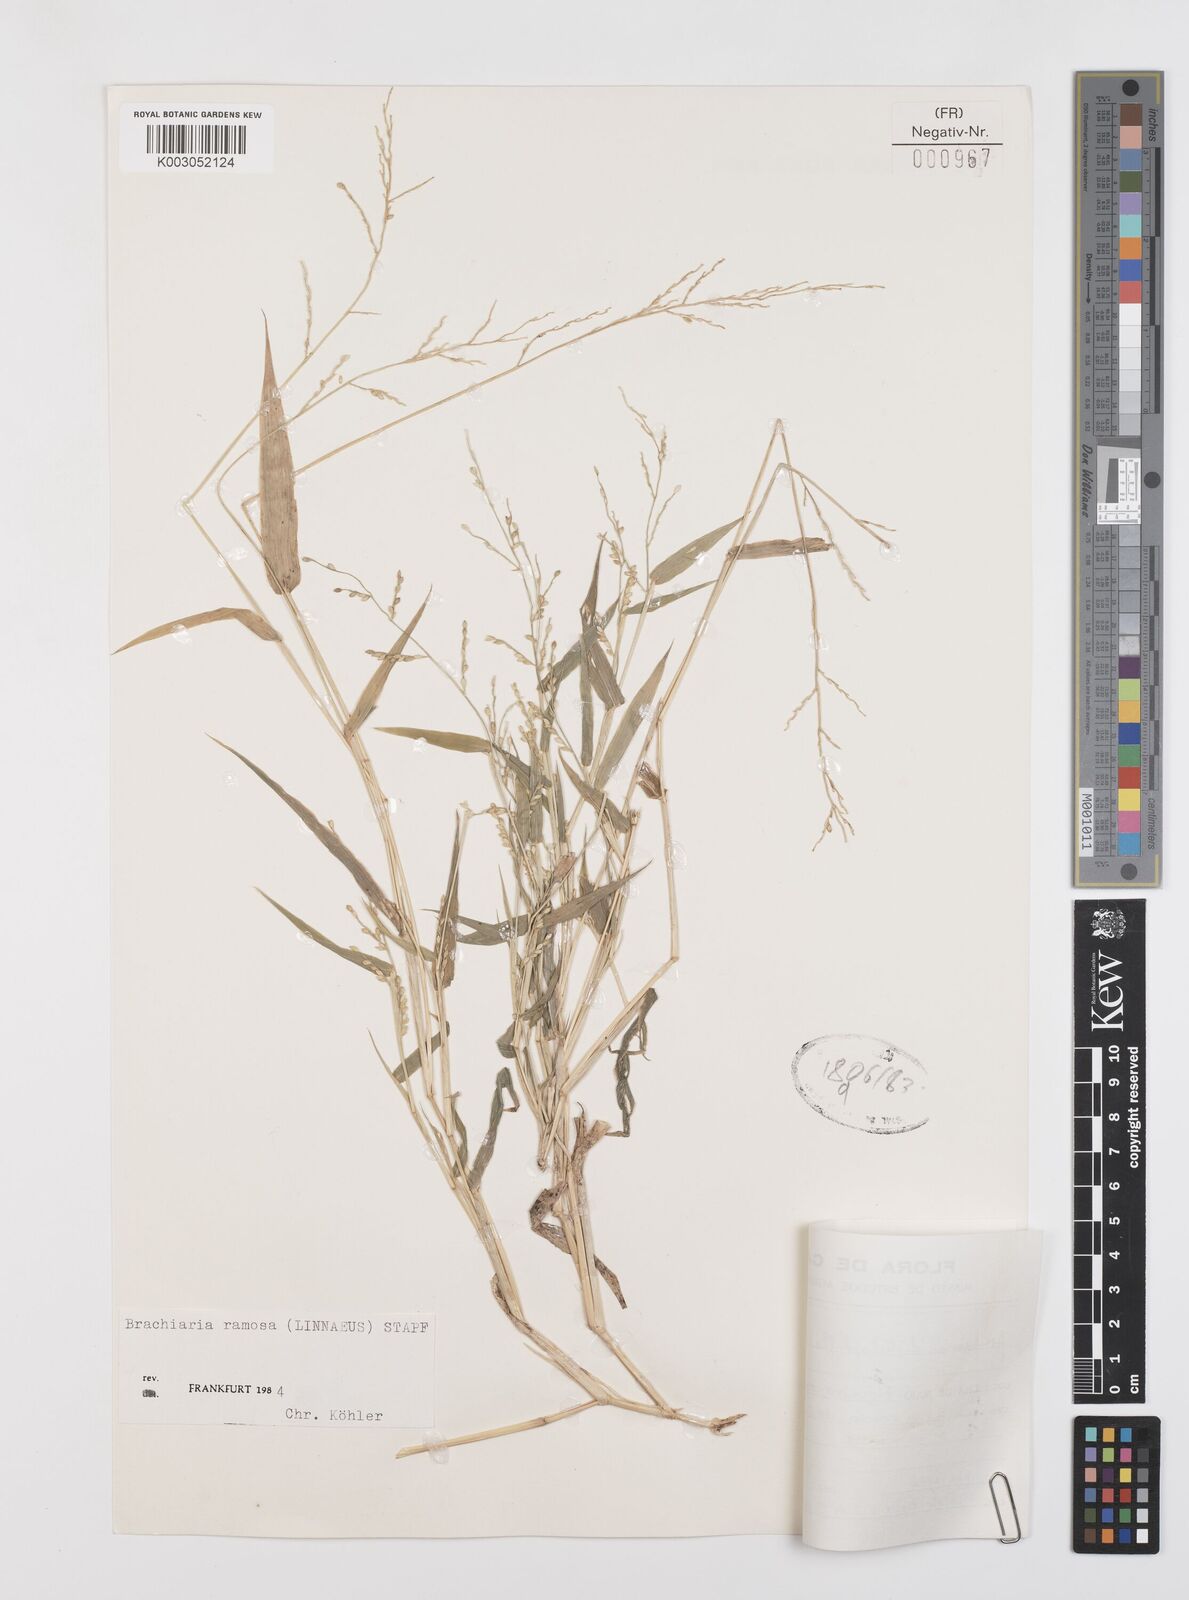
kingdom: Plantae
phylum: Tracheophyta
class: Liliopsida
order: Poales
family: Poaceae
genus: Urochloa
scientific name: Urochloa villosa
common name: Hairy signalgrass
